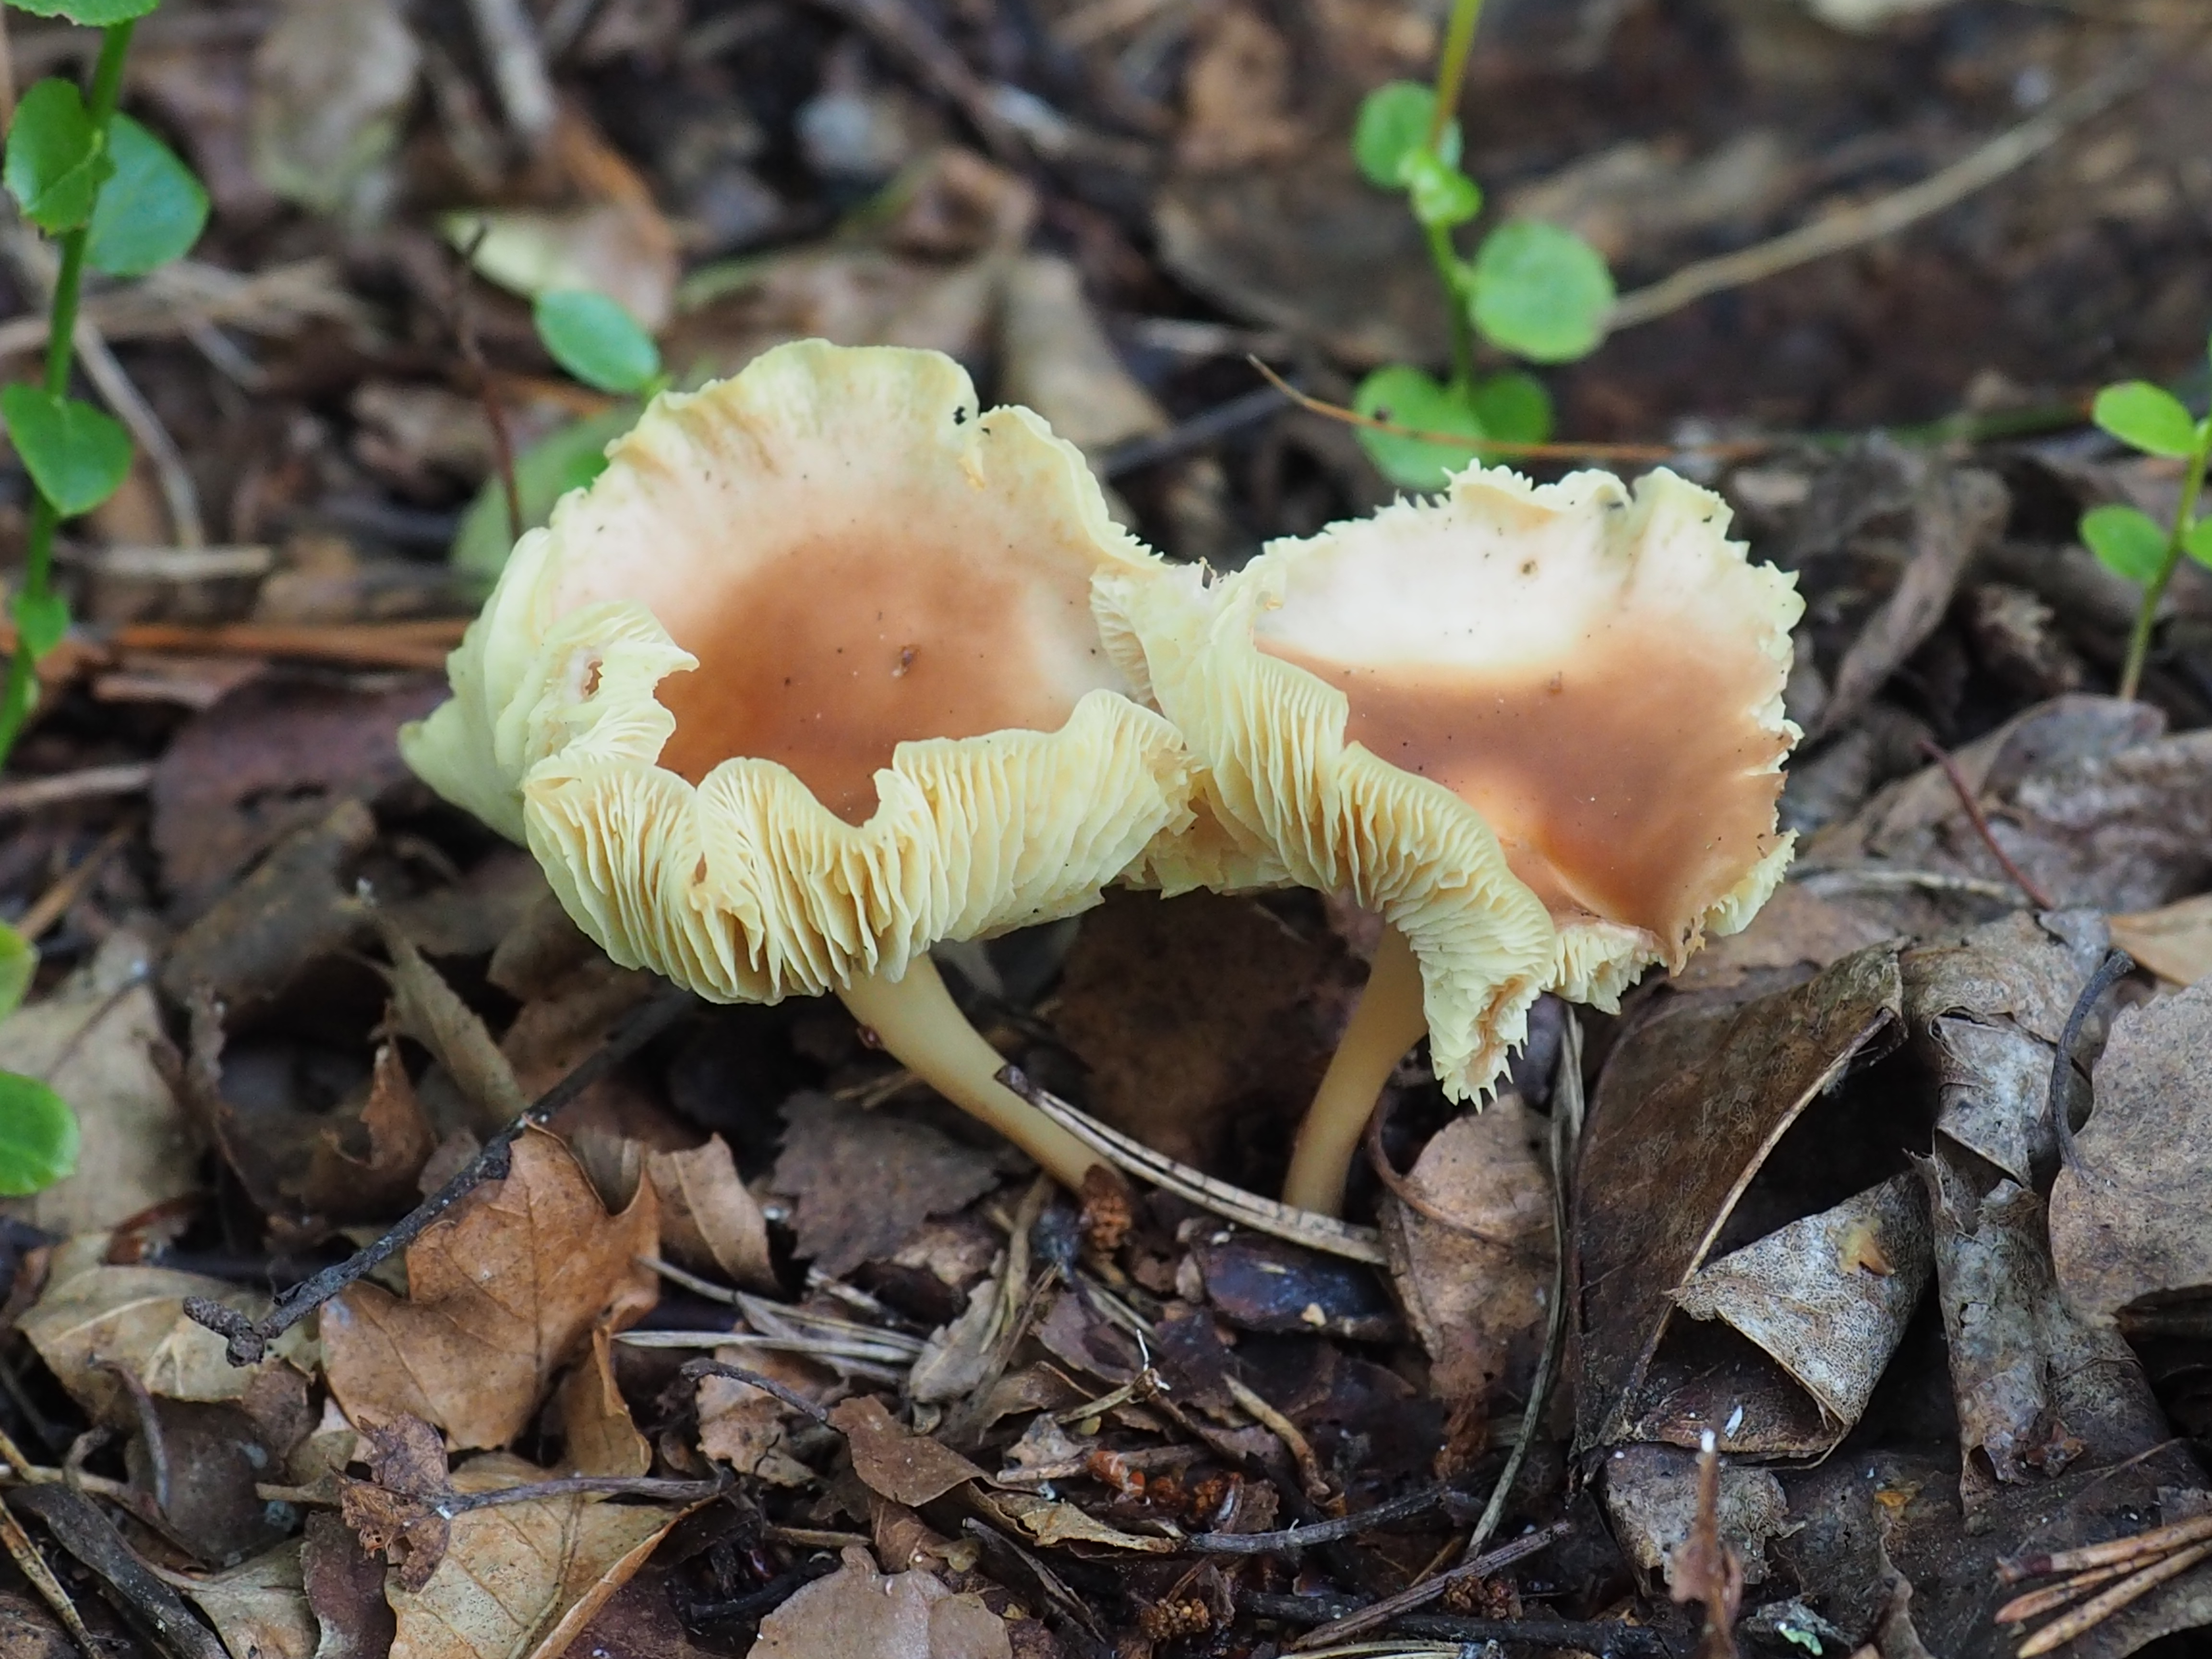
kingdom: Fungi
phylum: Basidiomycota
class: Agaricomycetes
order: Agaricales
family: Omphalotaceae
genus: Gymnopus
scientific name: Gymnopus ocior
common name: Spring toughshank
